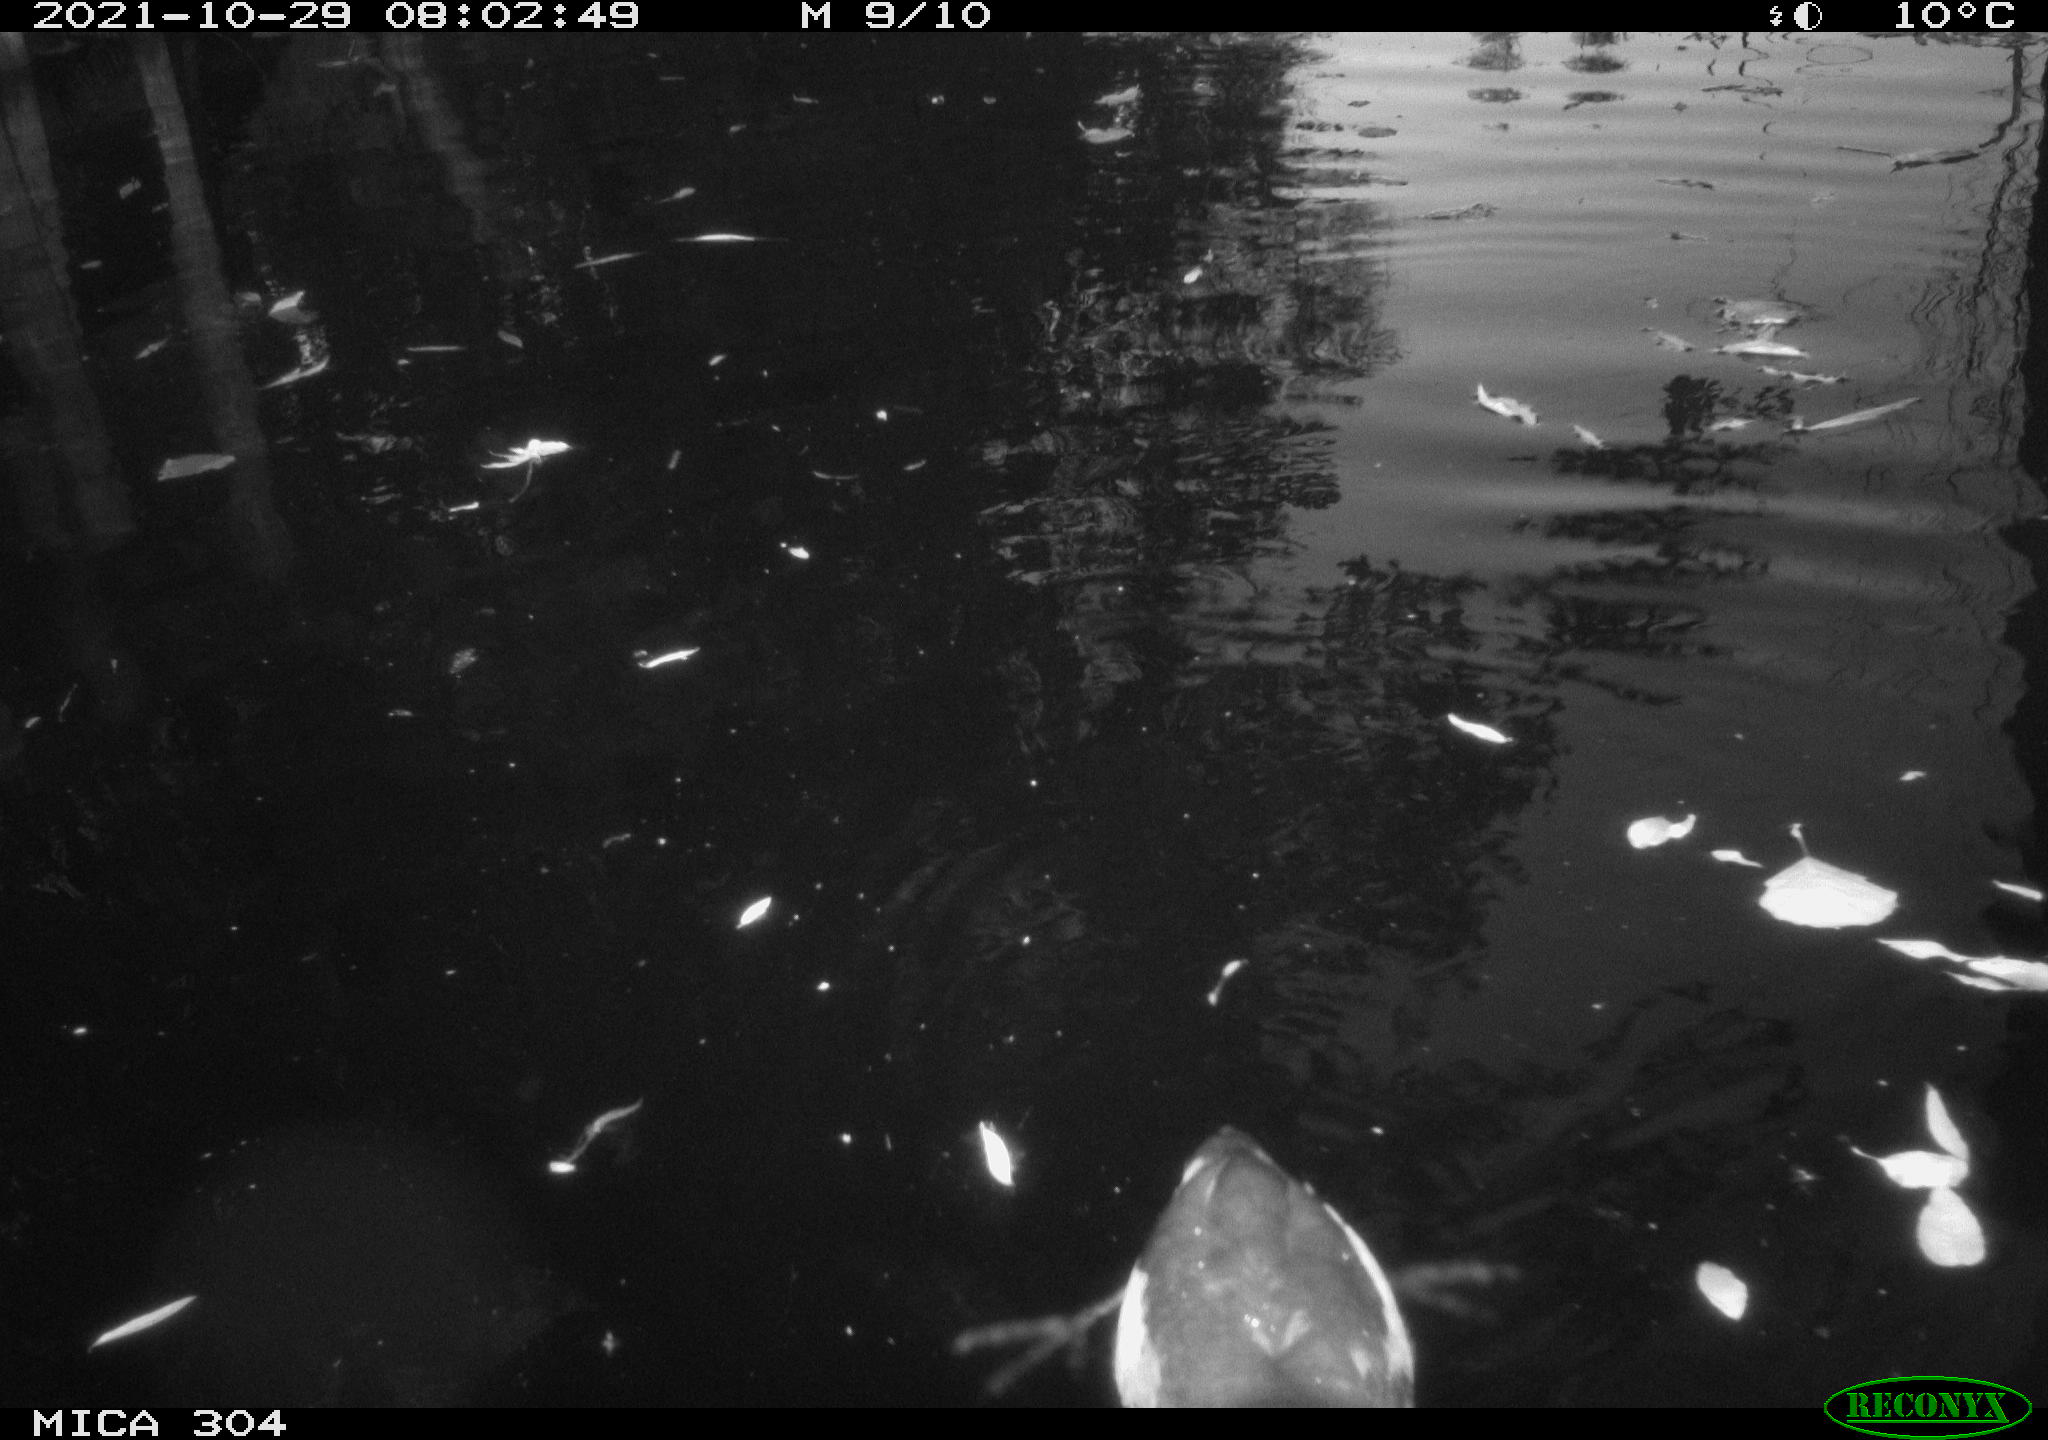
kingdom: Animalia
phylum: Chordata
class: Aves
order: Anseriformes
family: Anatidae
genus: Mareca
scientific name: Mareca strepera
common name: Gadwall
